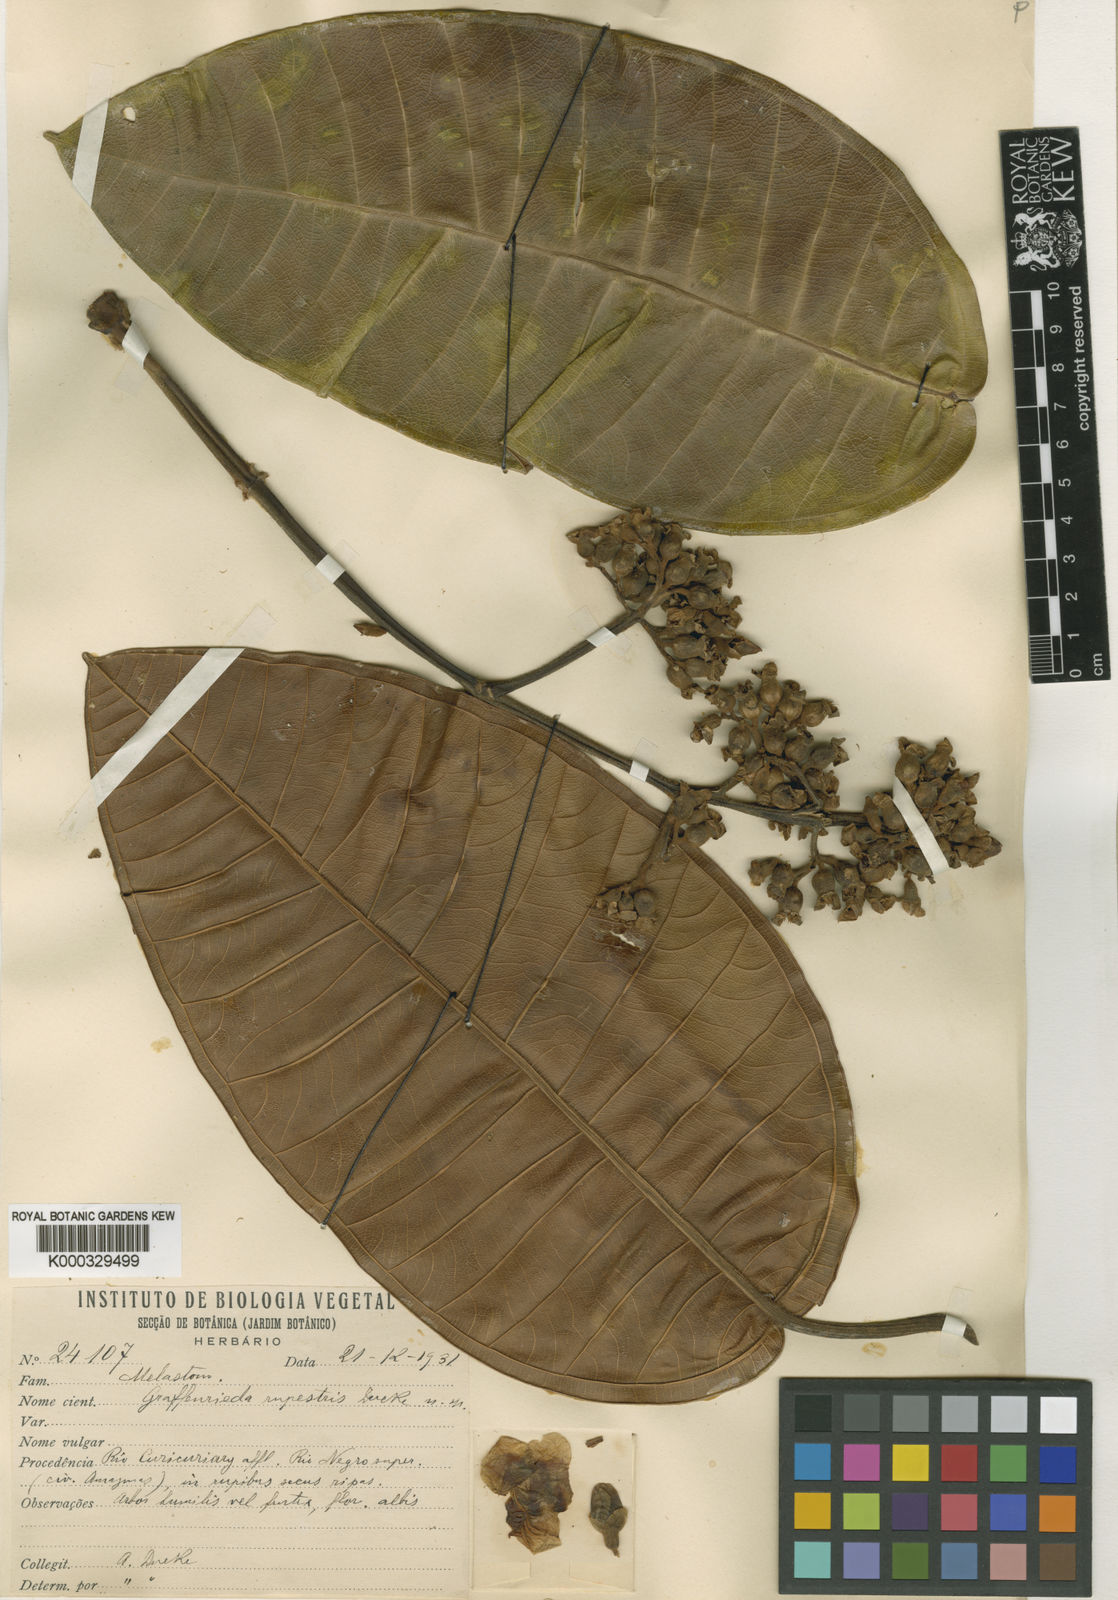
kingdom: Plantae
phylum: Tracheophyta
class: Magnoliopsida
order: Myrtales
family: Melastomataceae
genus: Graffenrieda
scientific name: Graffenrieda rupestris
